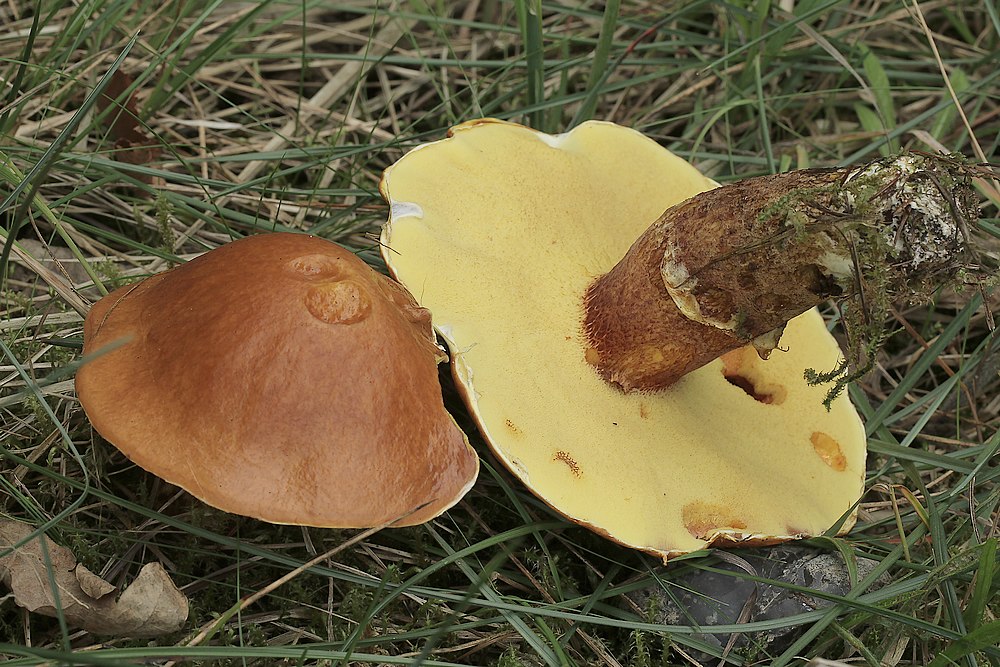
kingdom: Fungi
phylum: Basidiomycota
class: Agaricomycetes
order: Boletales
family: Suillaceae
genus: Suillus
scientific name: Suillus luteus
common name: brungul slimrørhat
